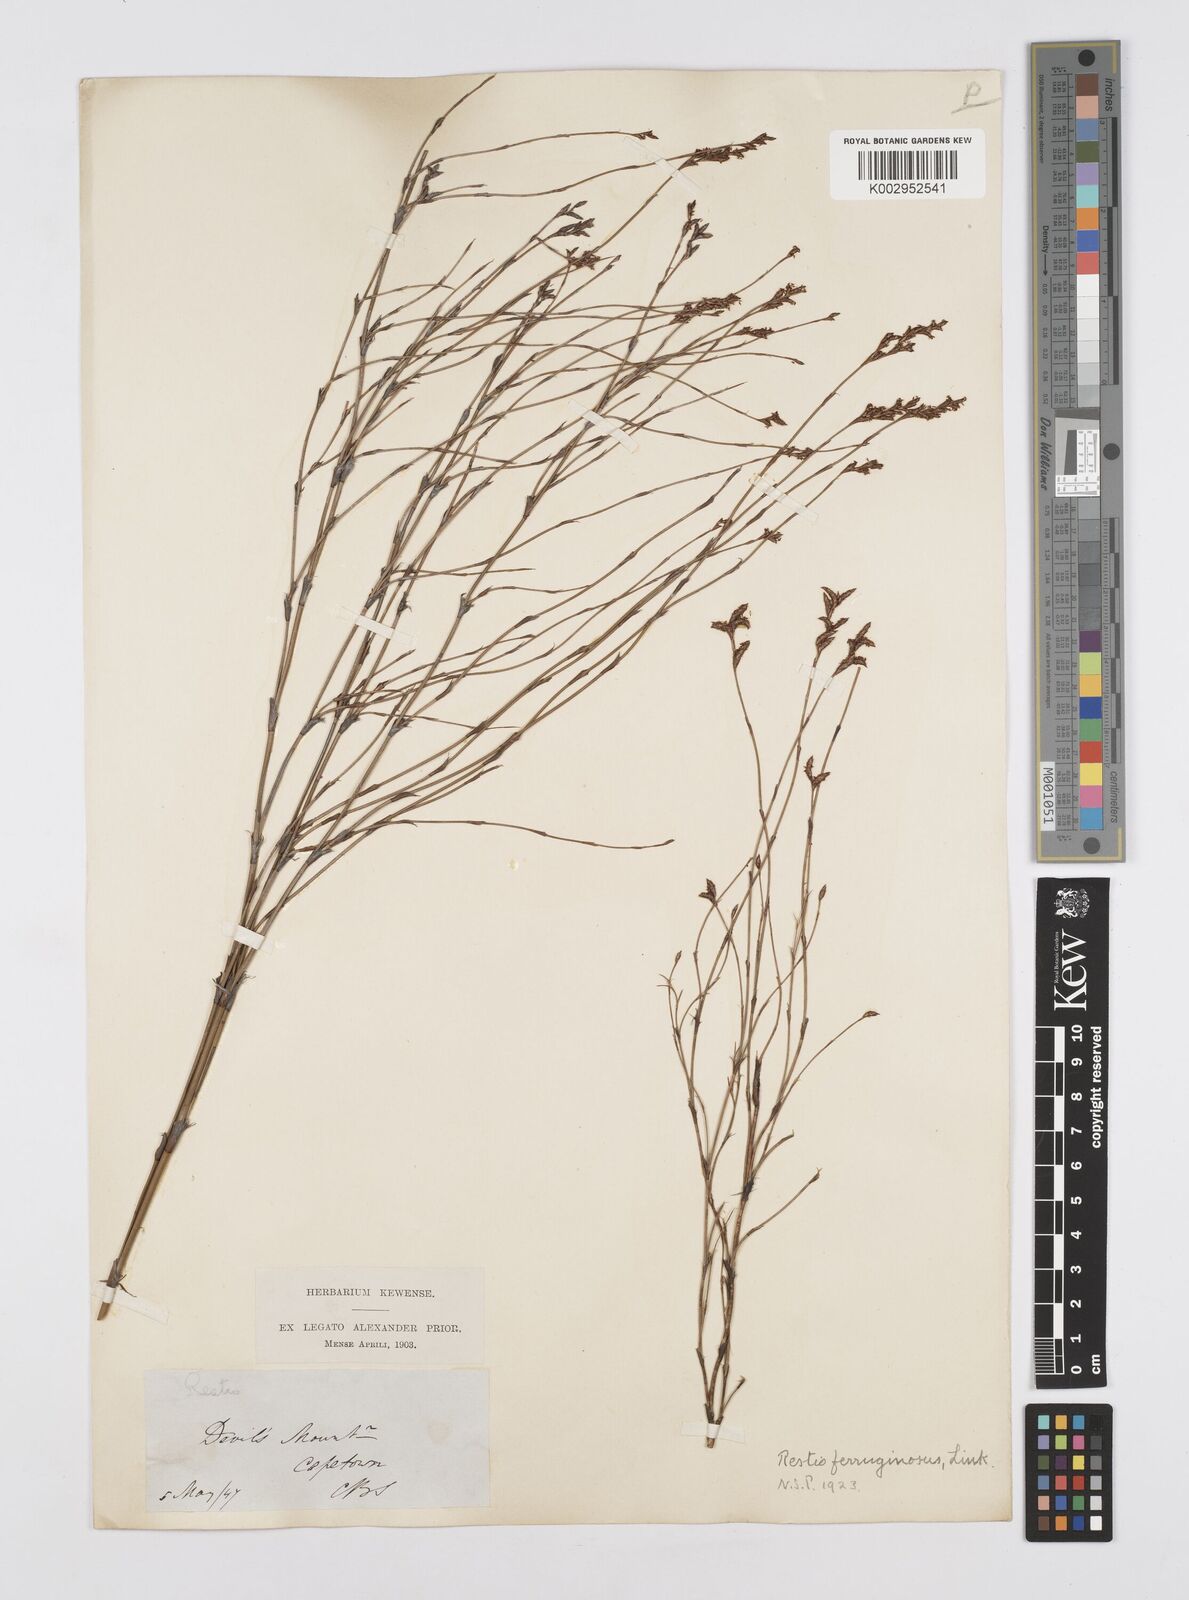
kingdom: Plantae
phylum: Tracheophyta
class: Liliopsida
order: Poales
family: Restionaceae
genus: Restio
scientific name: Restio gaudichaudianus
